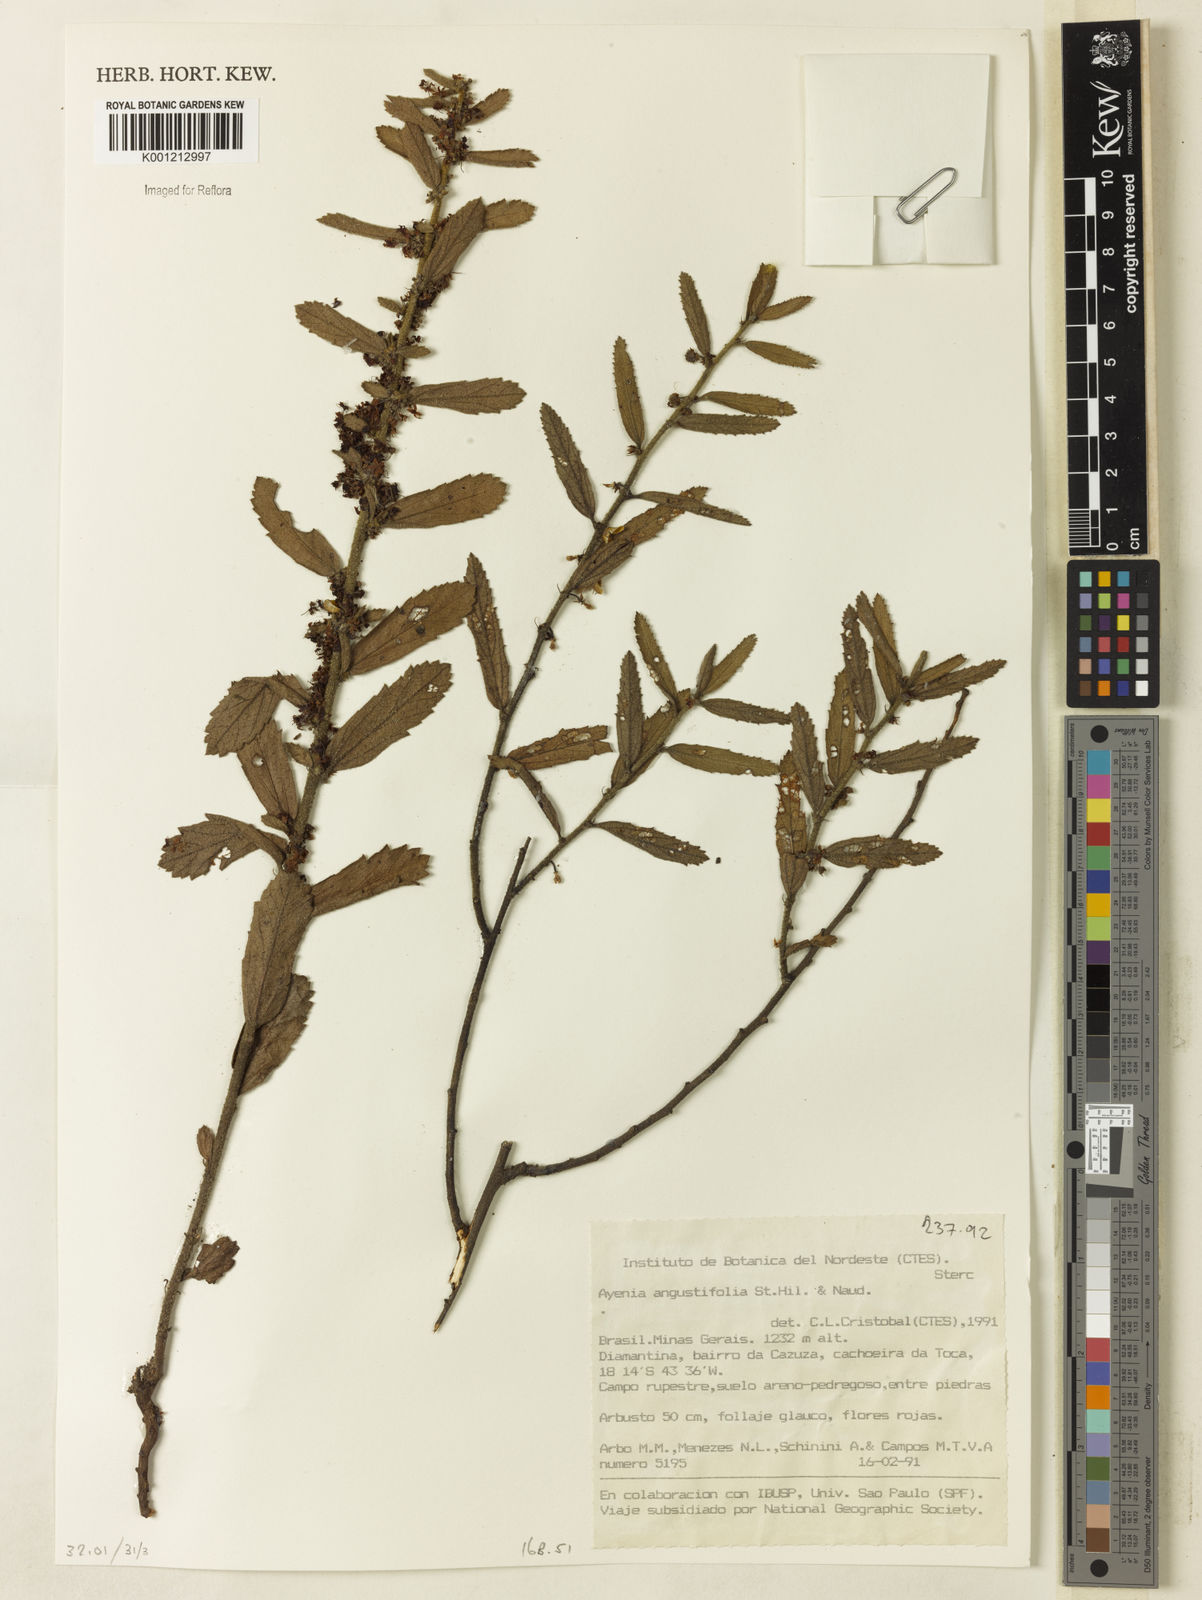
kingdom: Plantae
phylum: Tracheophyta
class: Magnoliopsida
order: Malvales
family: Malvaceae
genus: Ayenia
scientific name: Ayenia angustifolia
